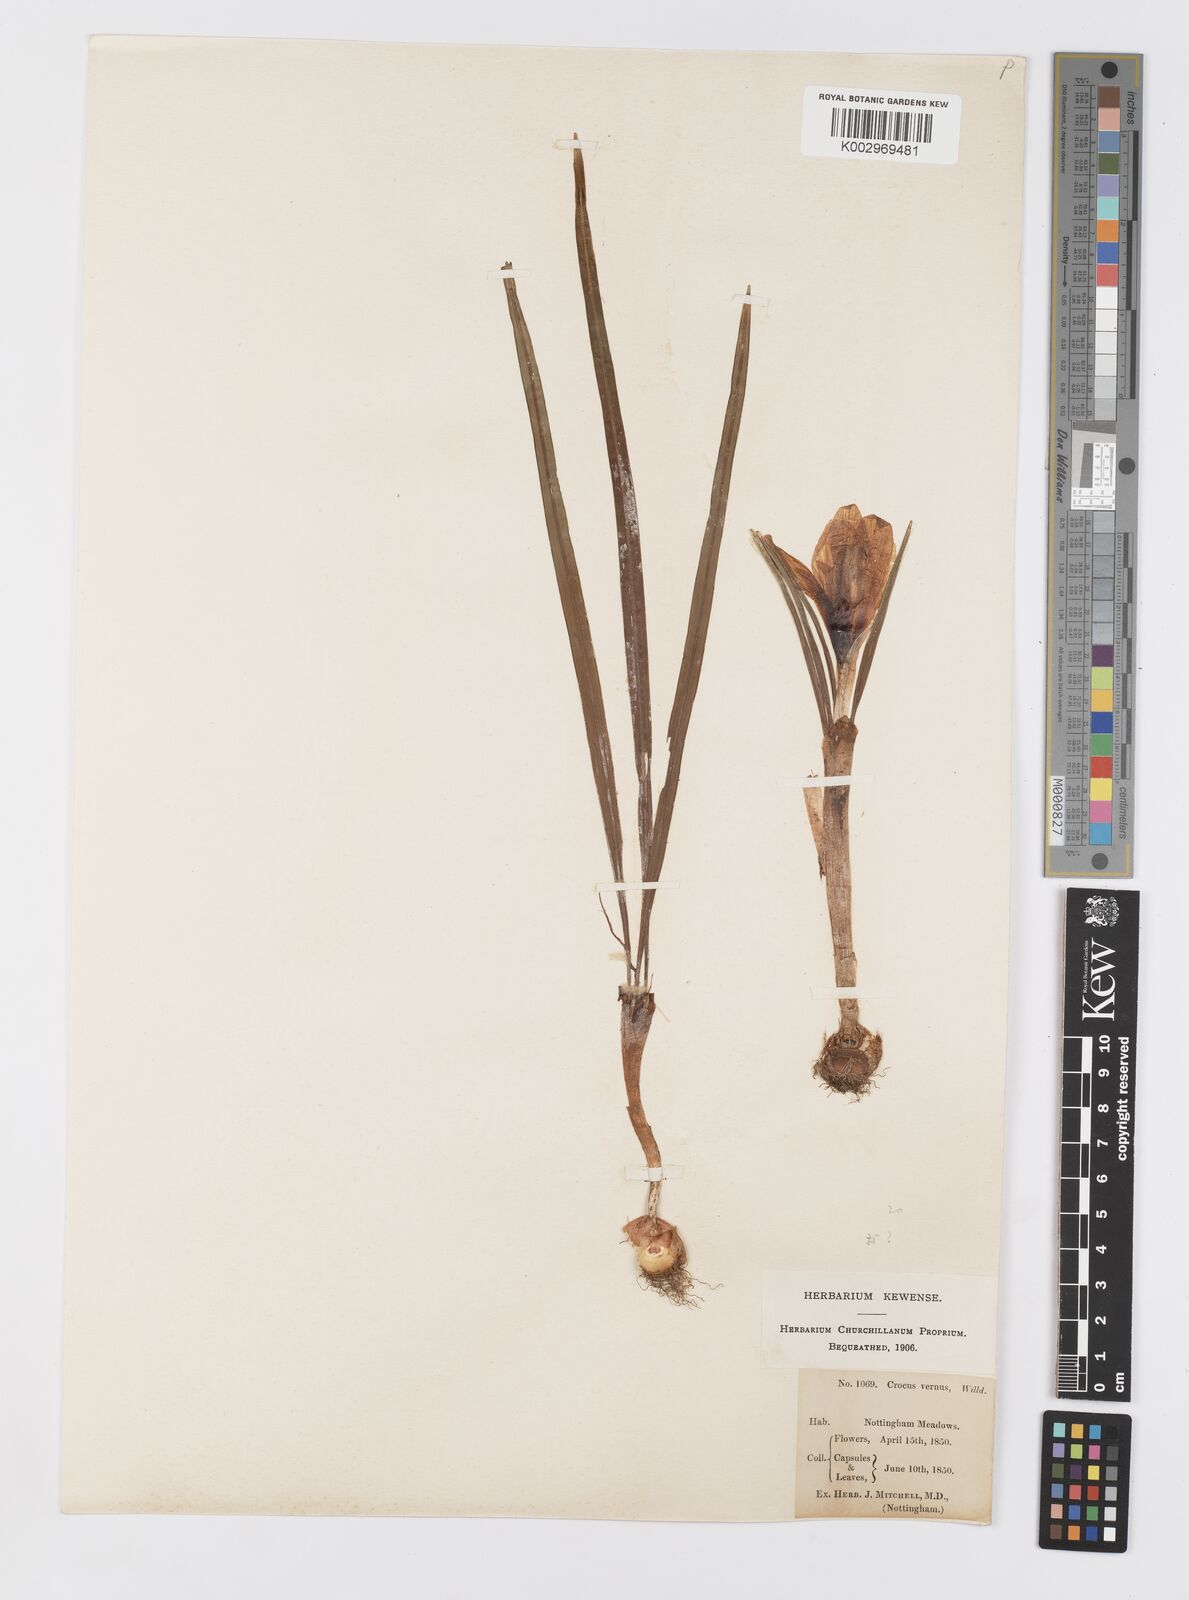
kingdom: Plantae
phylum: Tracheophyta
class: Liliopsida
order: Asparagales
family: Iridaceae
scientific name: Iridaceae
